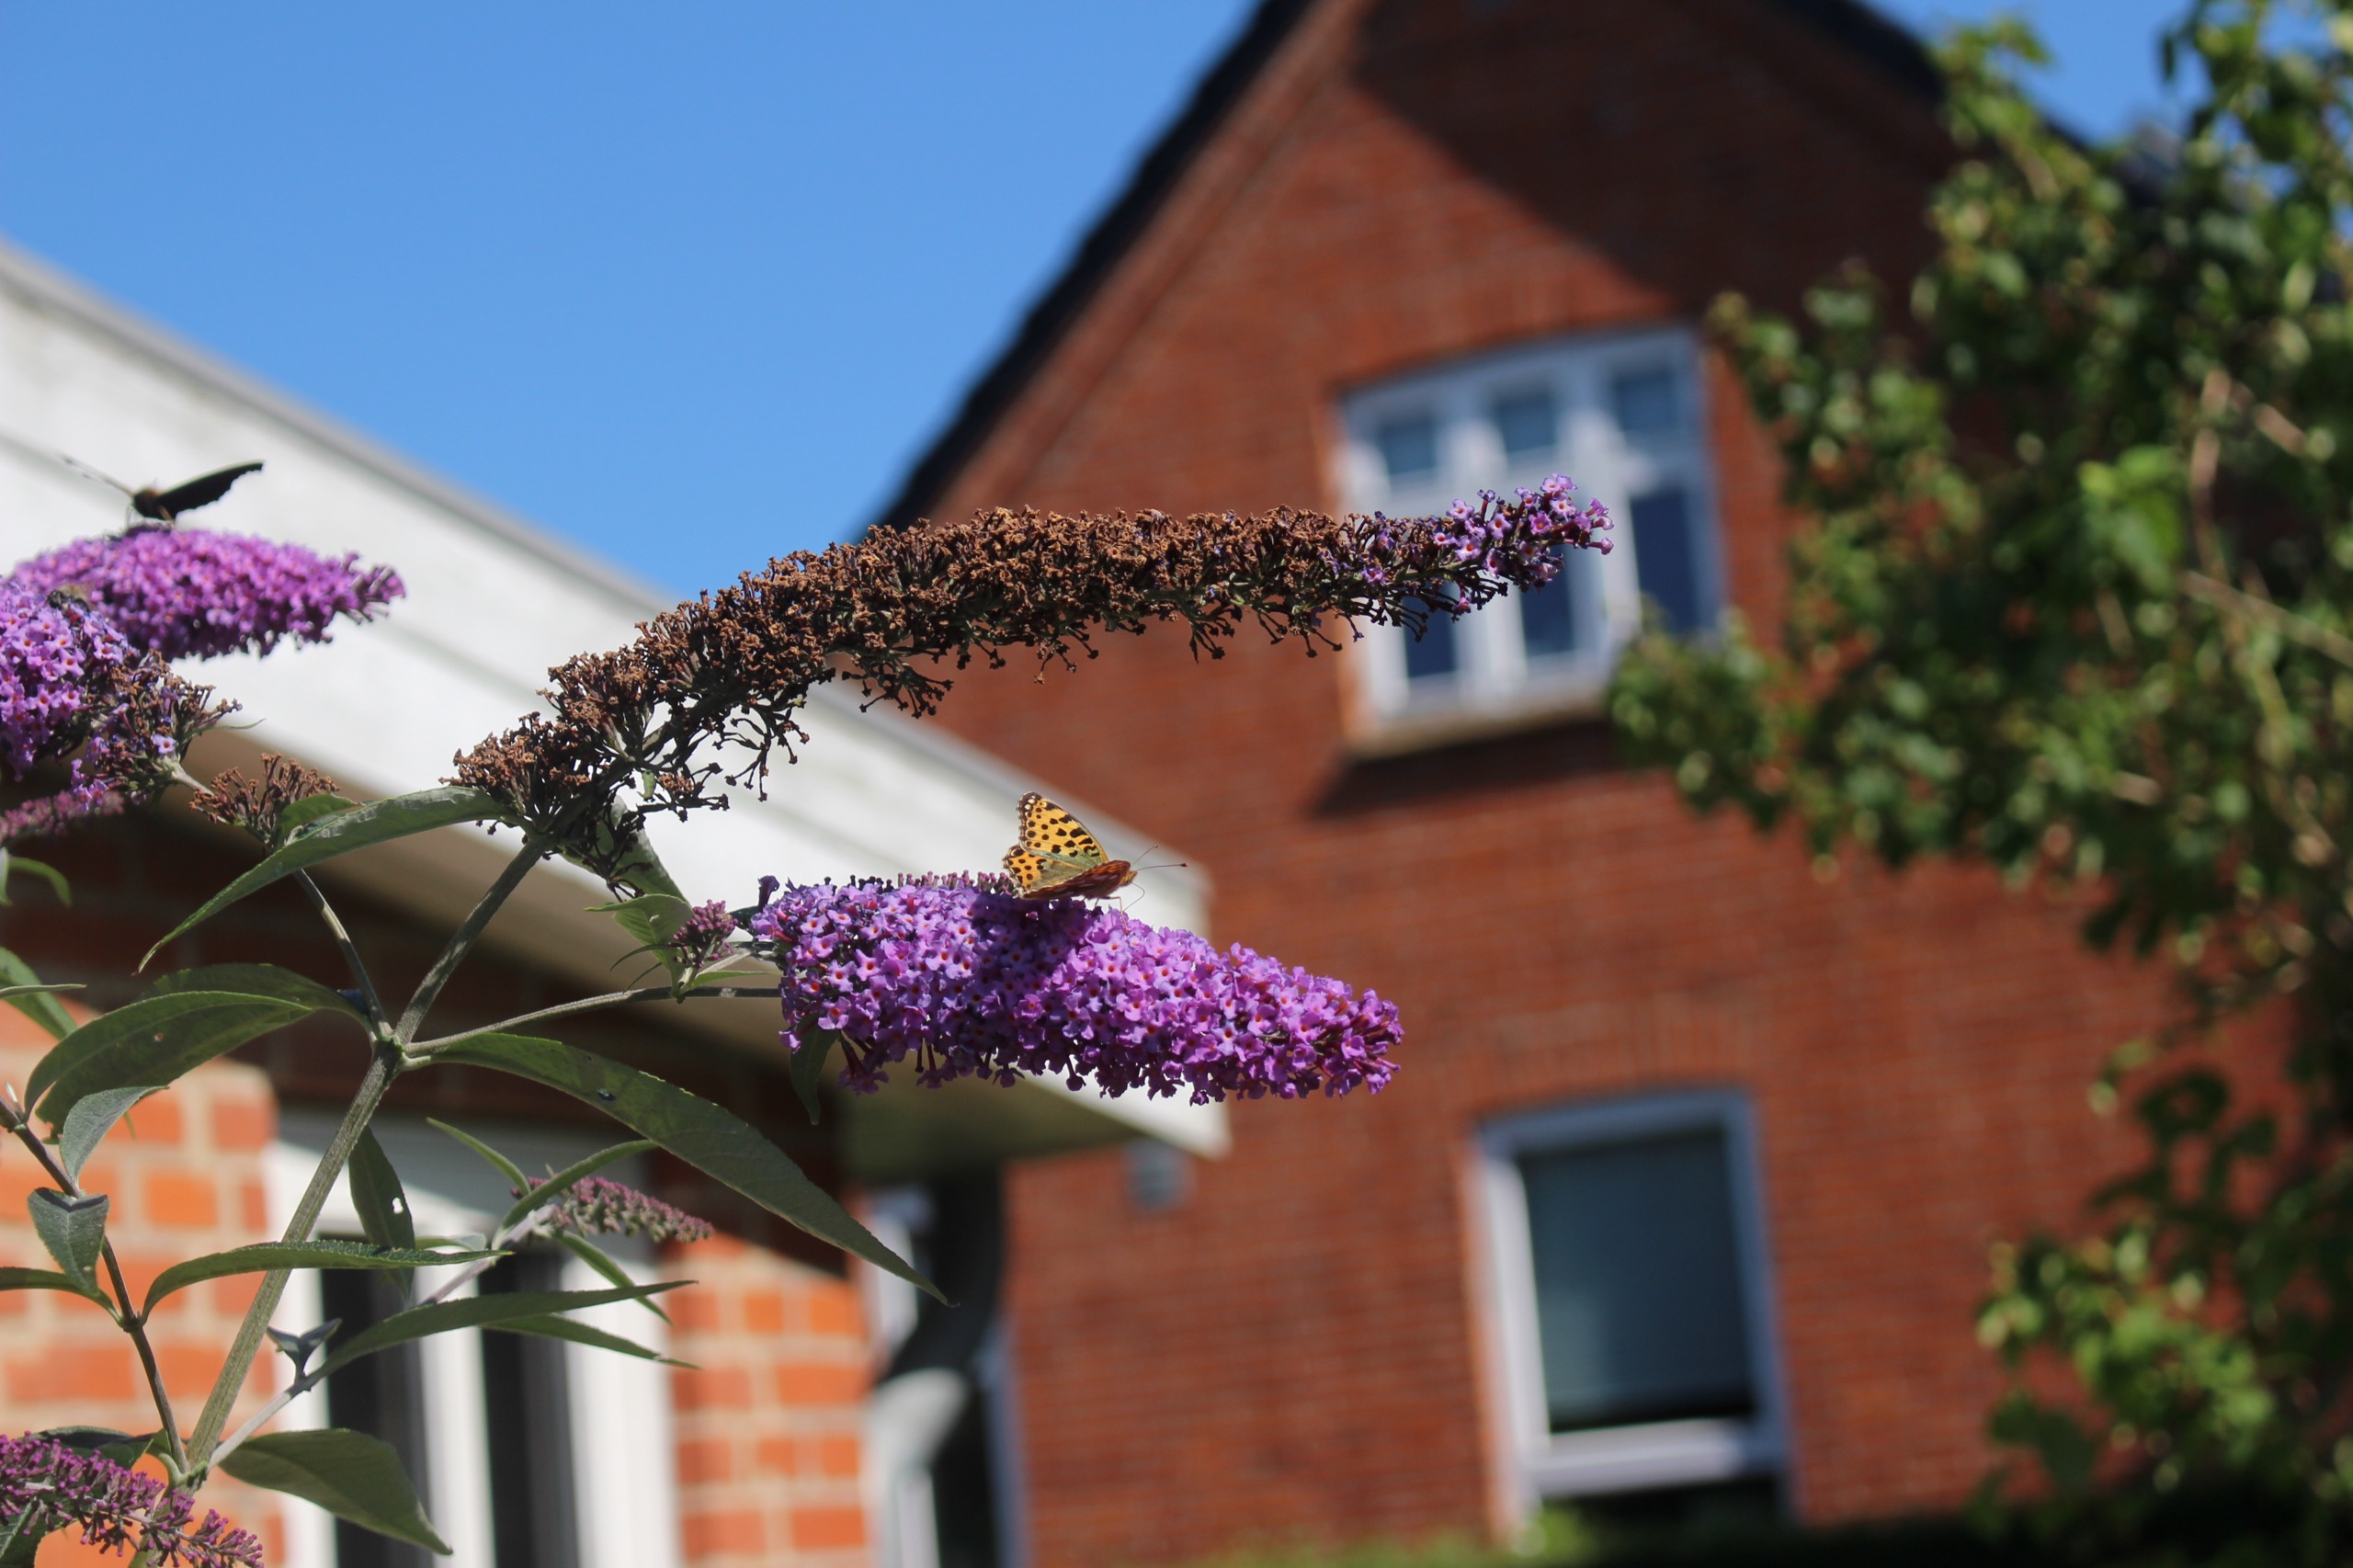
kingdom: Animalia
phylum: Arthropoda
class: Insecta
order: Lepidoptera
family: Nymphalidae
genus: Issoria
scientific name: Issoria lathonia
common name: Storplettet perlemorsommerfugl
